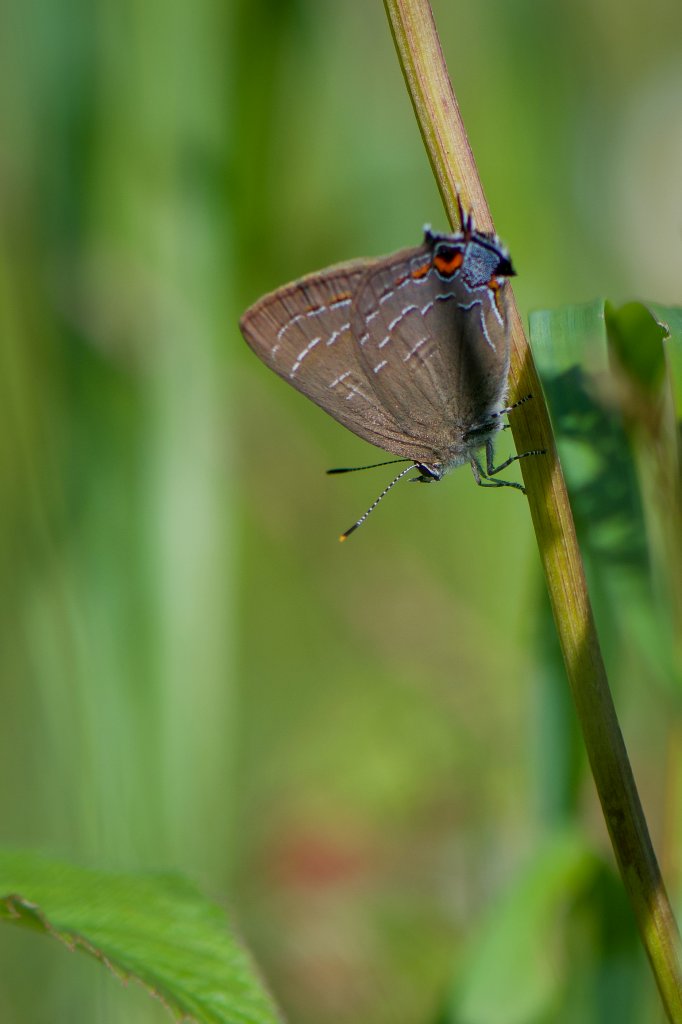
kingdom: Animalia
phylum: Arthropoda
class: Insecta
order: Lepidoptera
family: Lycaenidae
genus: Satyrium
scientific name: Satyrium calanus
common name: Banded Hairstreak
